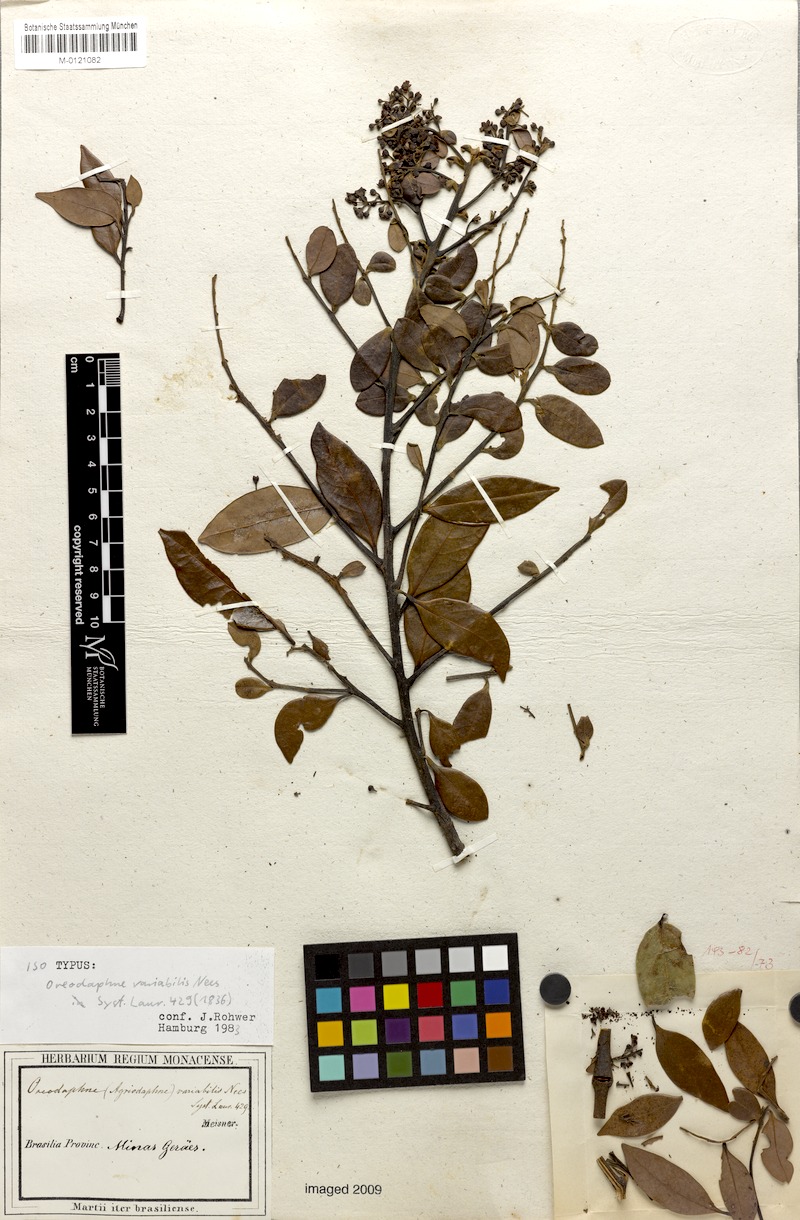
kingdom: Plantae
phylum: Tracheophyta
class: Magnoliopsida
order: Laurales
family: Lauraceae
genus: Ocotea
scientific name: Ocotea lancifolia
